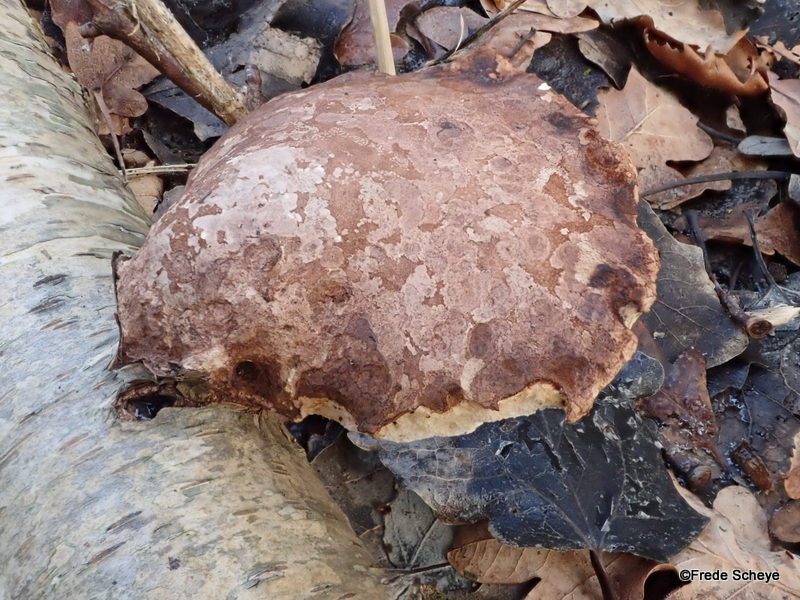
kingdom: Fungi
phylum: Basidiomycota
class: Agaricomycetes
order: Polyporales
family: Fomitopsidaceae
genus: Fomitopsis
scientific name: Fomitopsis betulina
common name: birkeporesvamp
